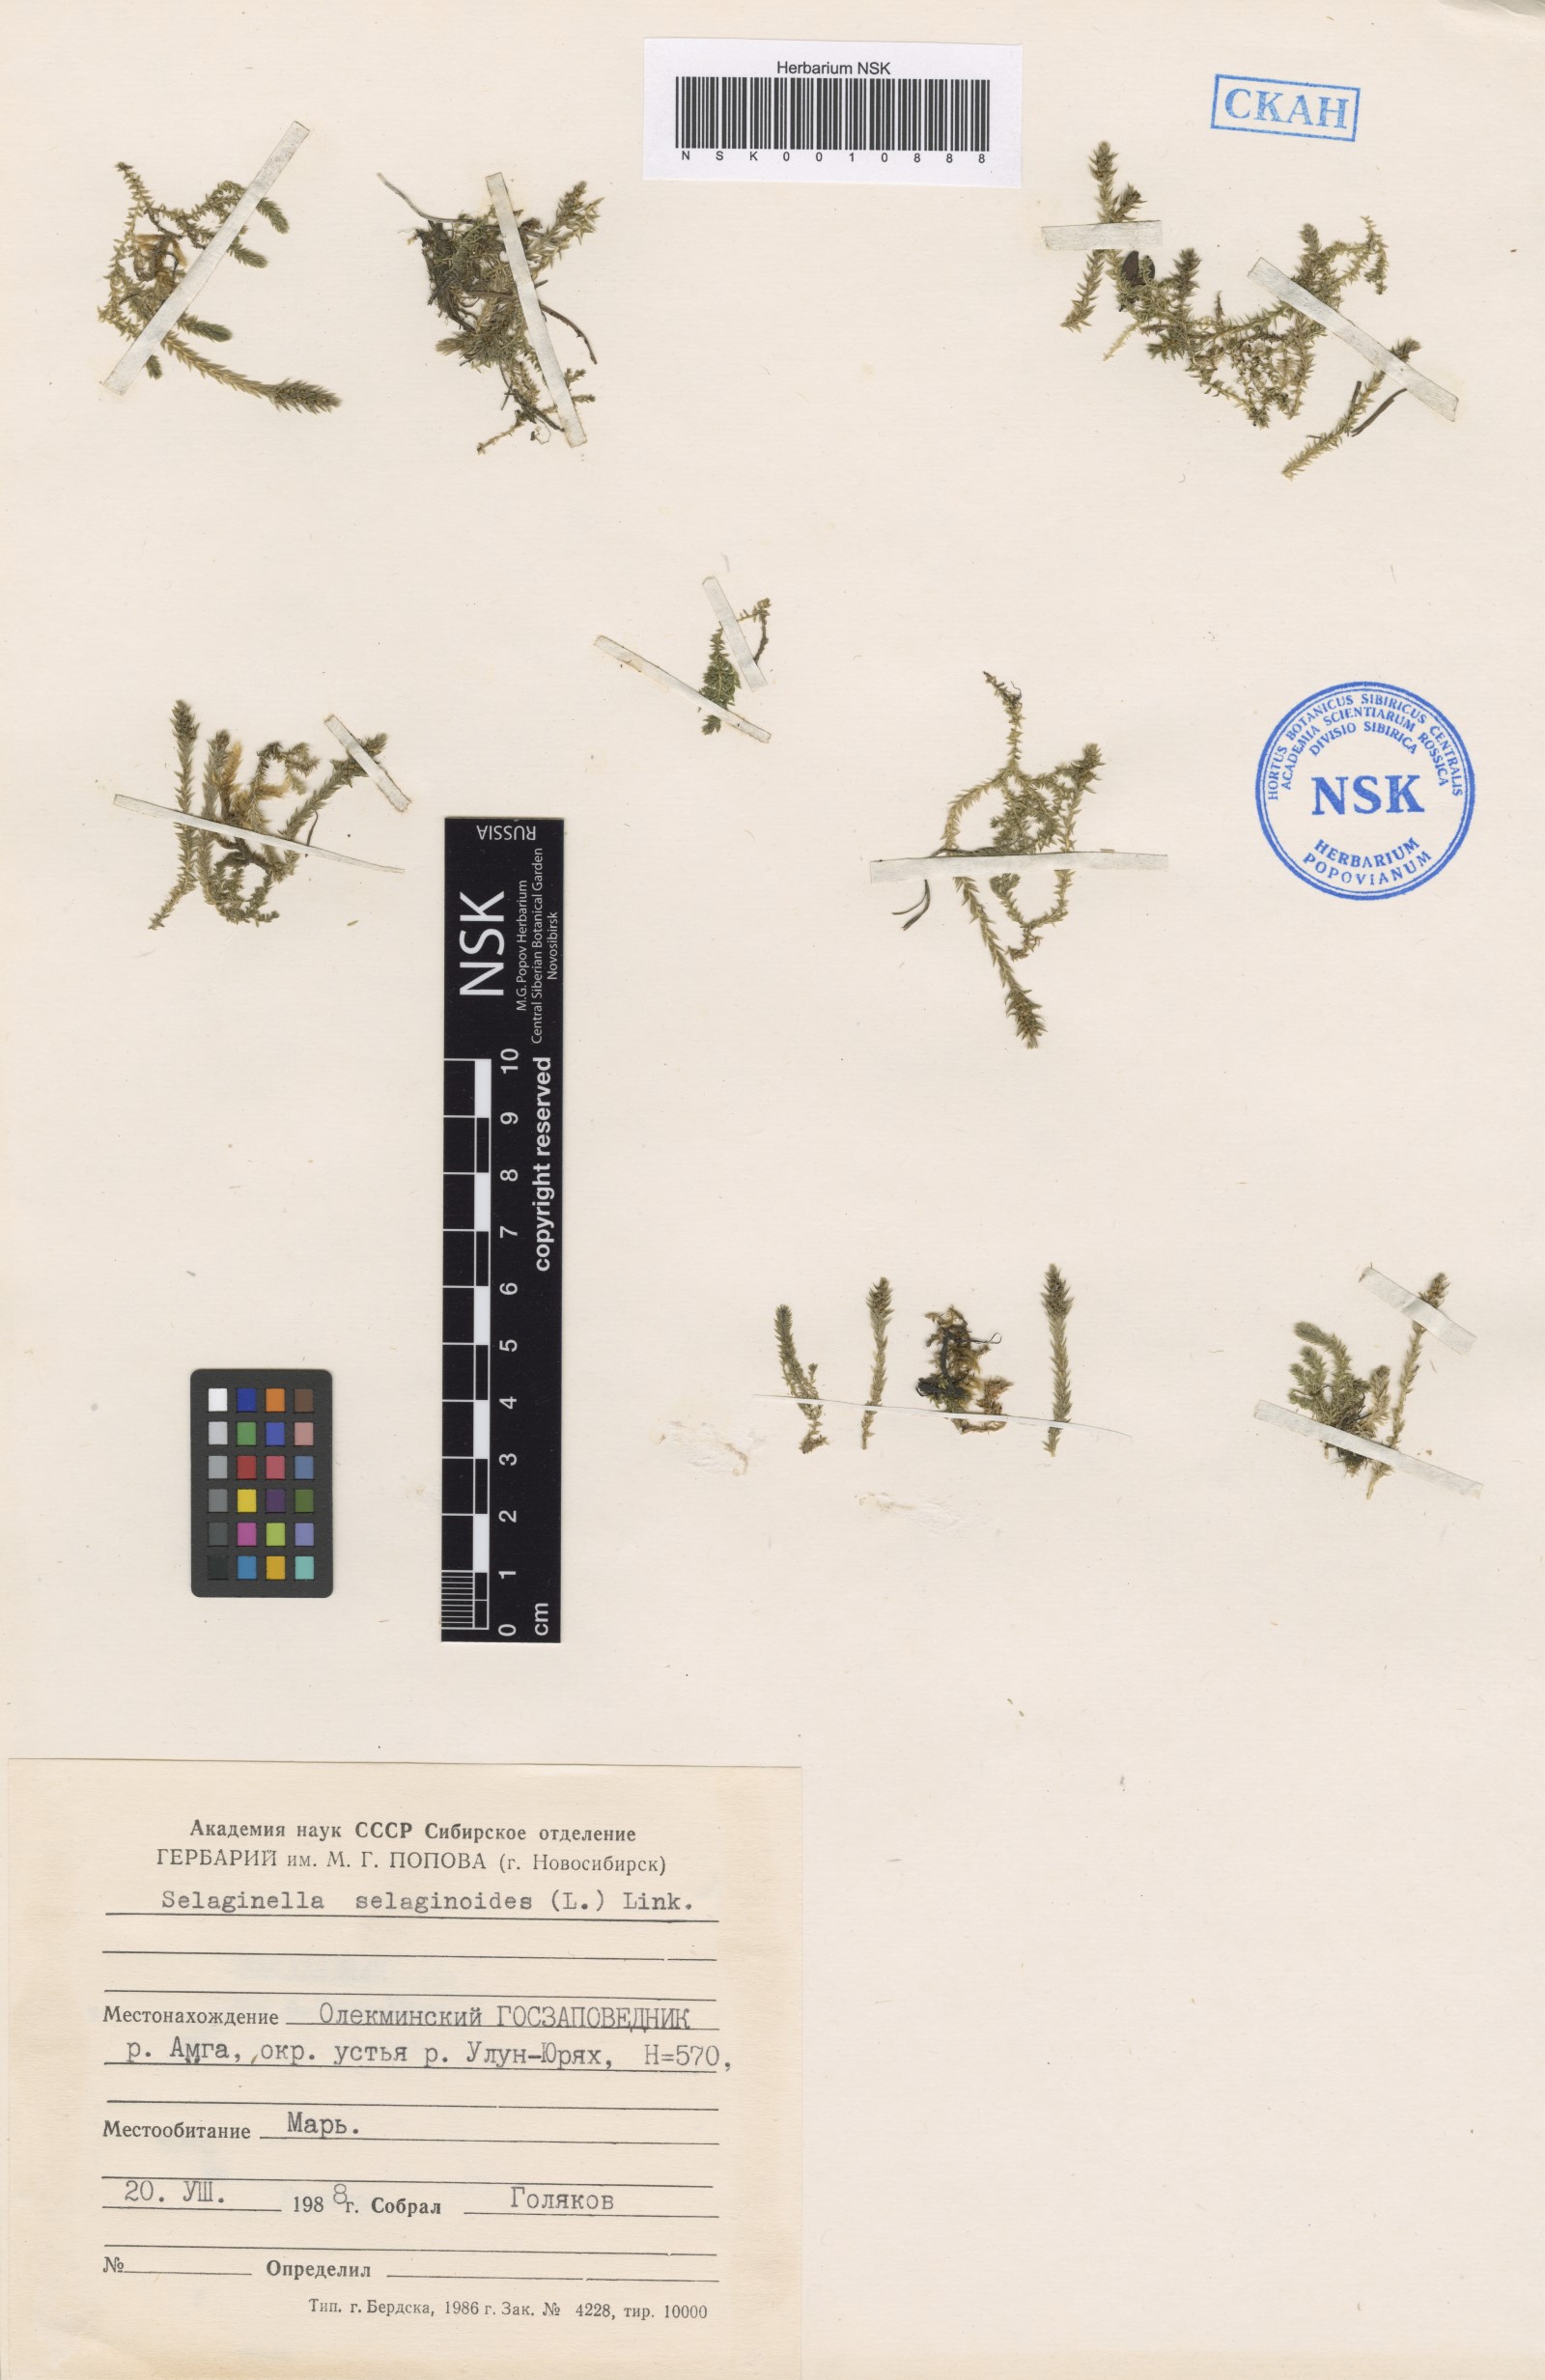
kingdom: Plantae
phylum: Tracheophyta
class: Lycopodiopsida
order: Selaginellales
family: Selaginellaceae
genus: Selaginella
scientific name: Selaginella selaginoides
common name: Prickly mountain-moss
